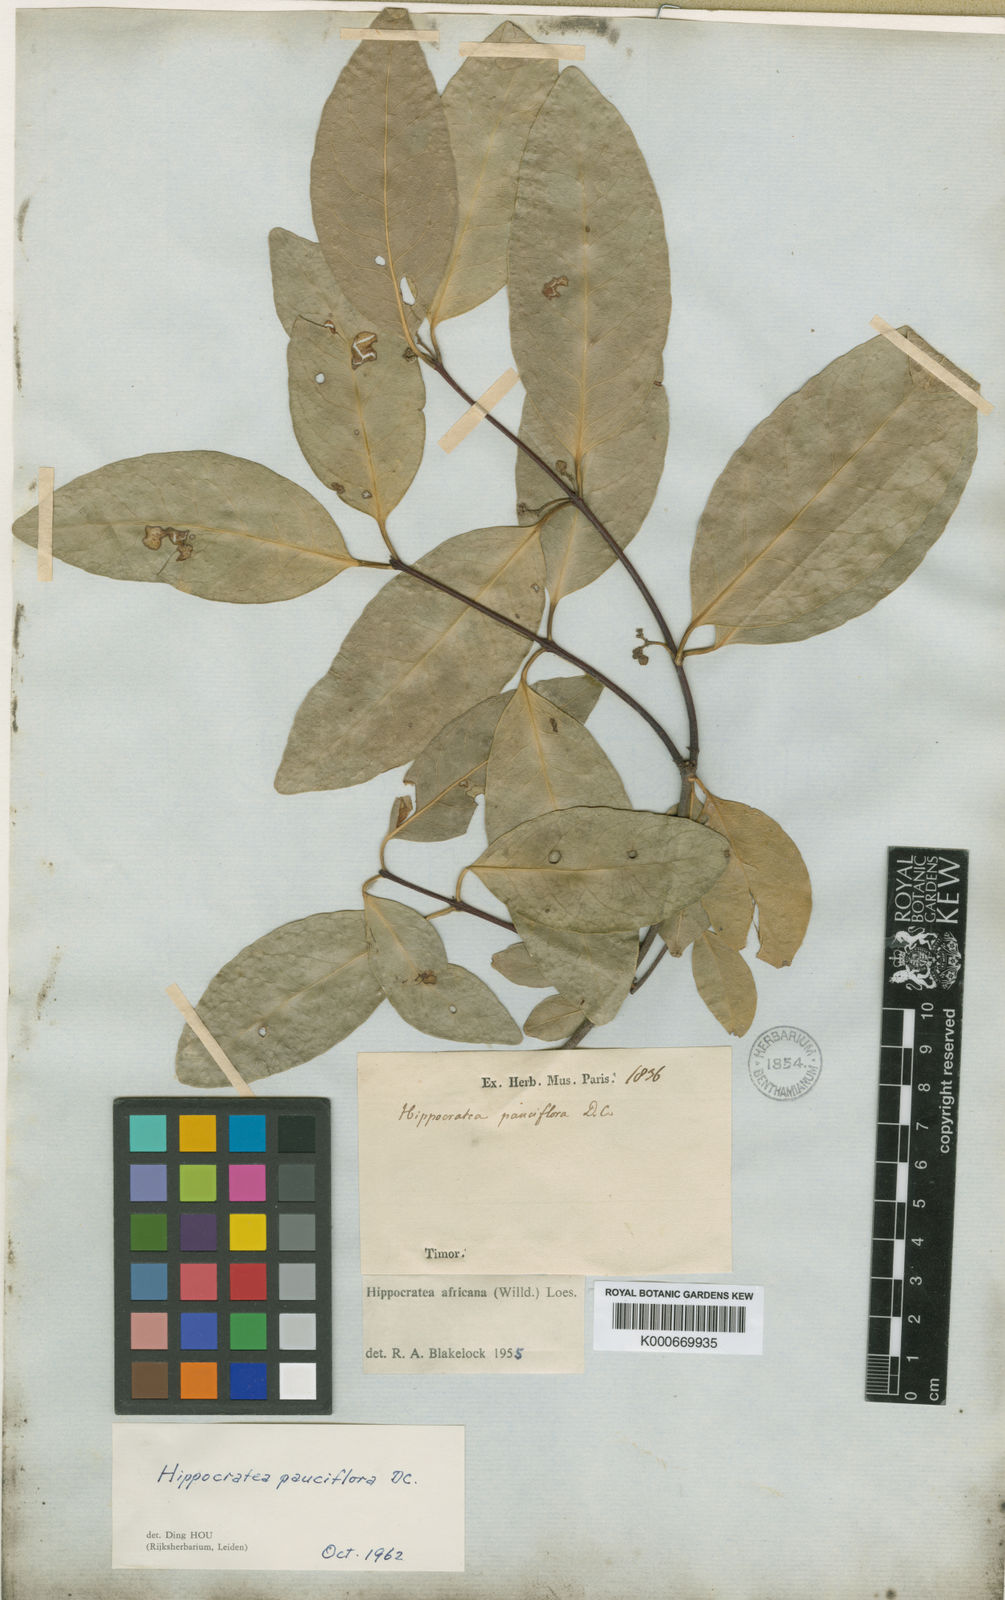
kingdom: Plantae
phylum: Tracheophyta
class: Magnoliopsida
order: Celastrales
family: Celastraceae
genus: Loeseneriella
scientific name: Loeseneriella pauciflora
